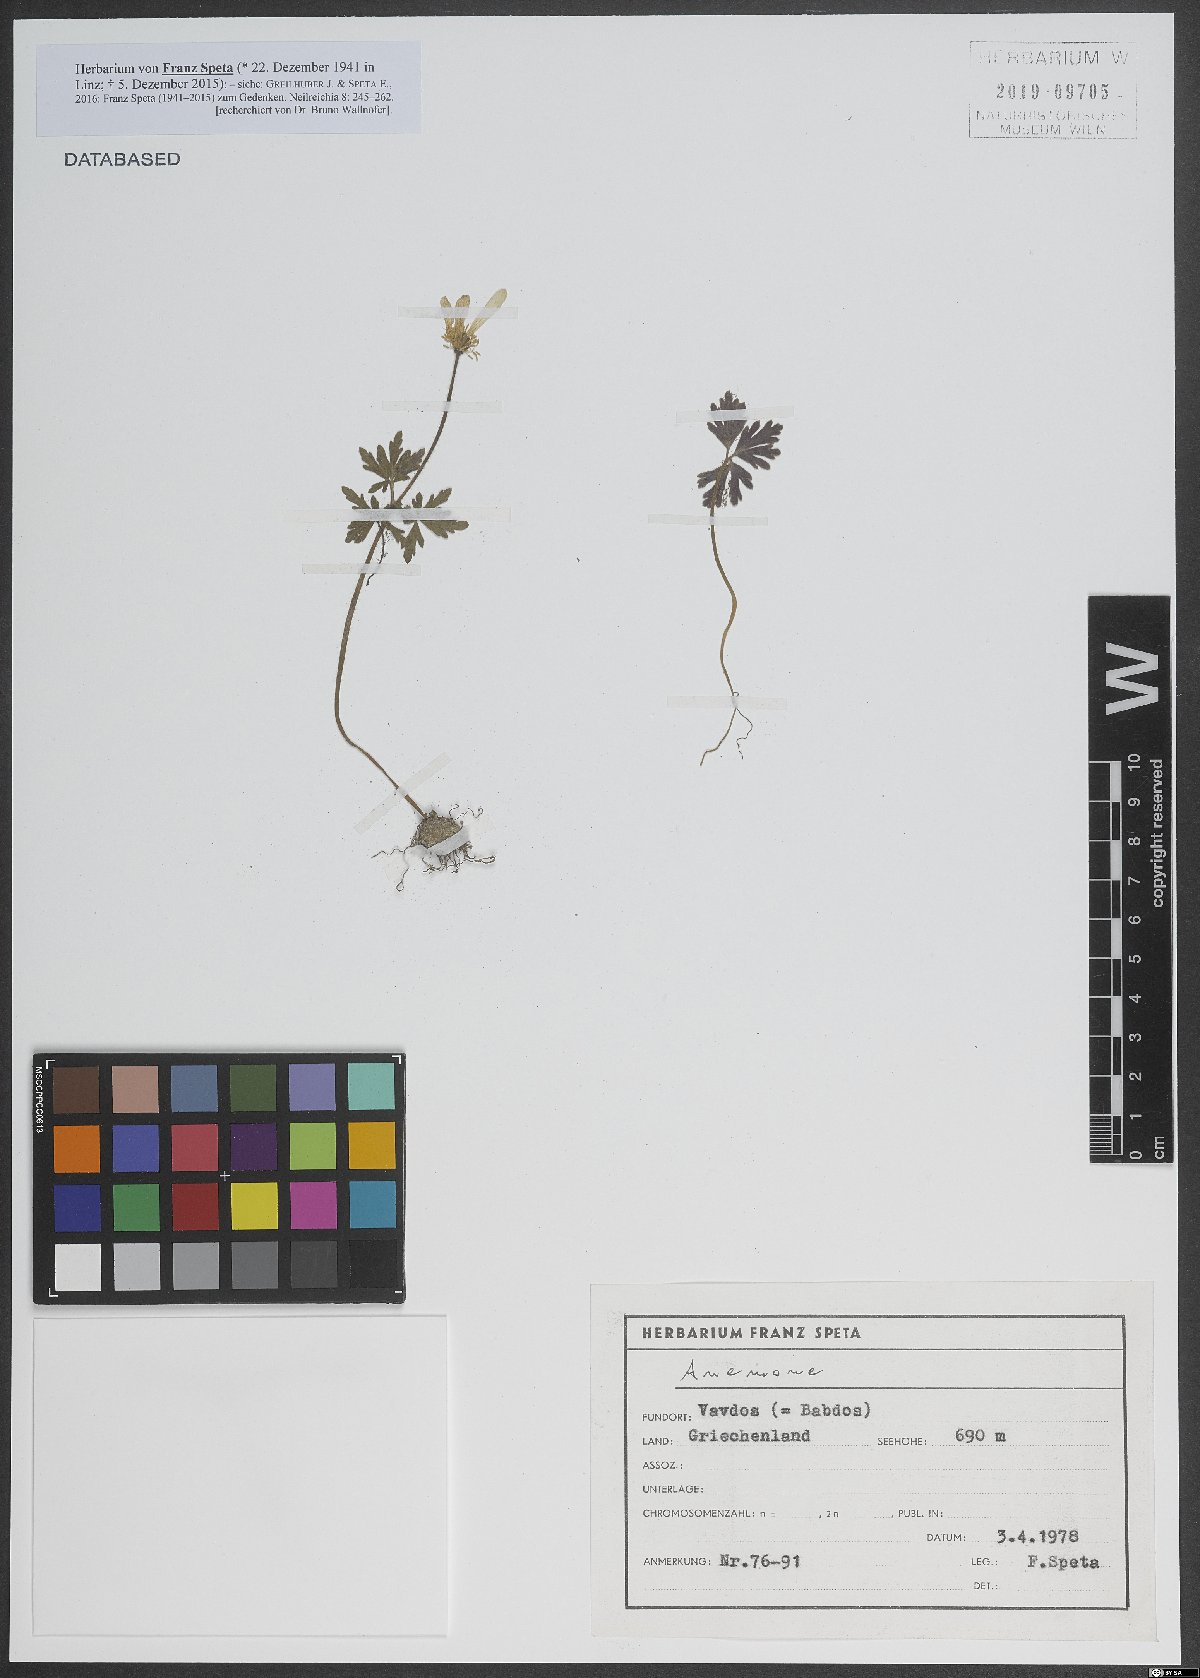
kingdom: Plantae
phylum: Tracheophyta
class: Magnoliopsida
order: Ranunculales
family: Ranunculaceae
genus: Anemone
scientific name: Anemone
